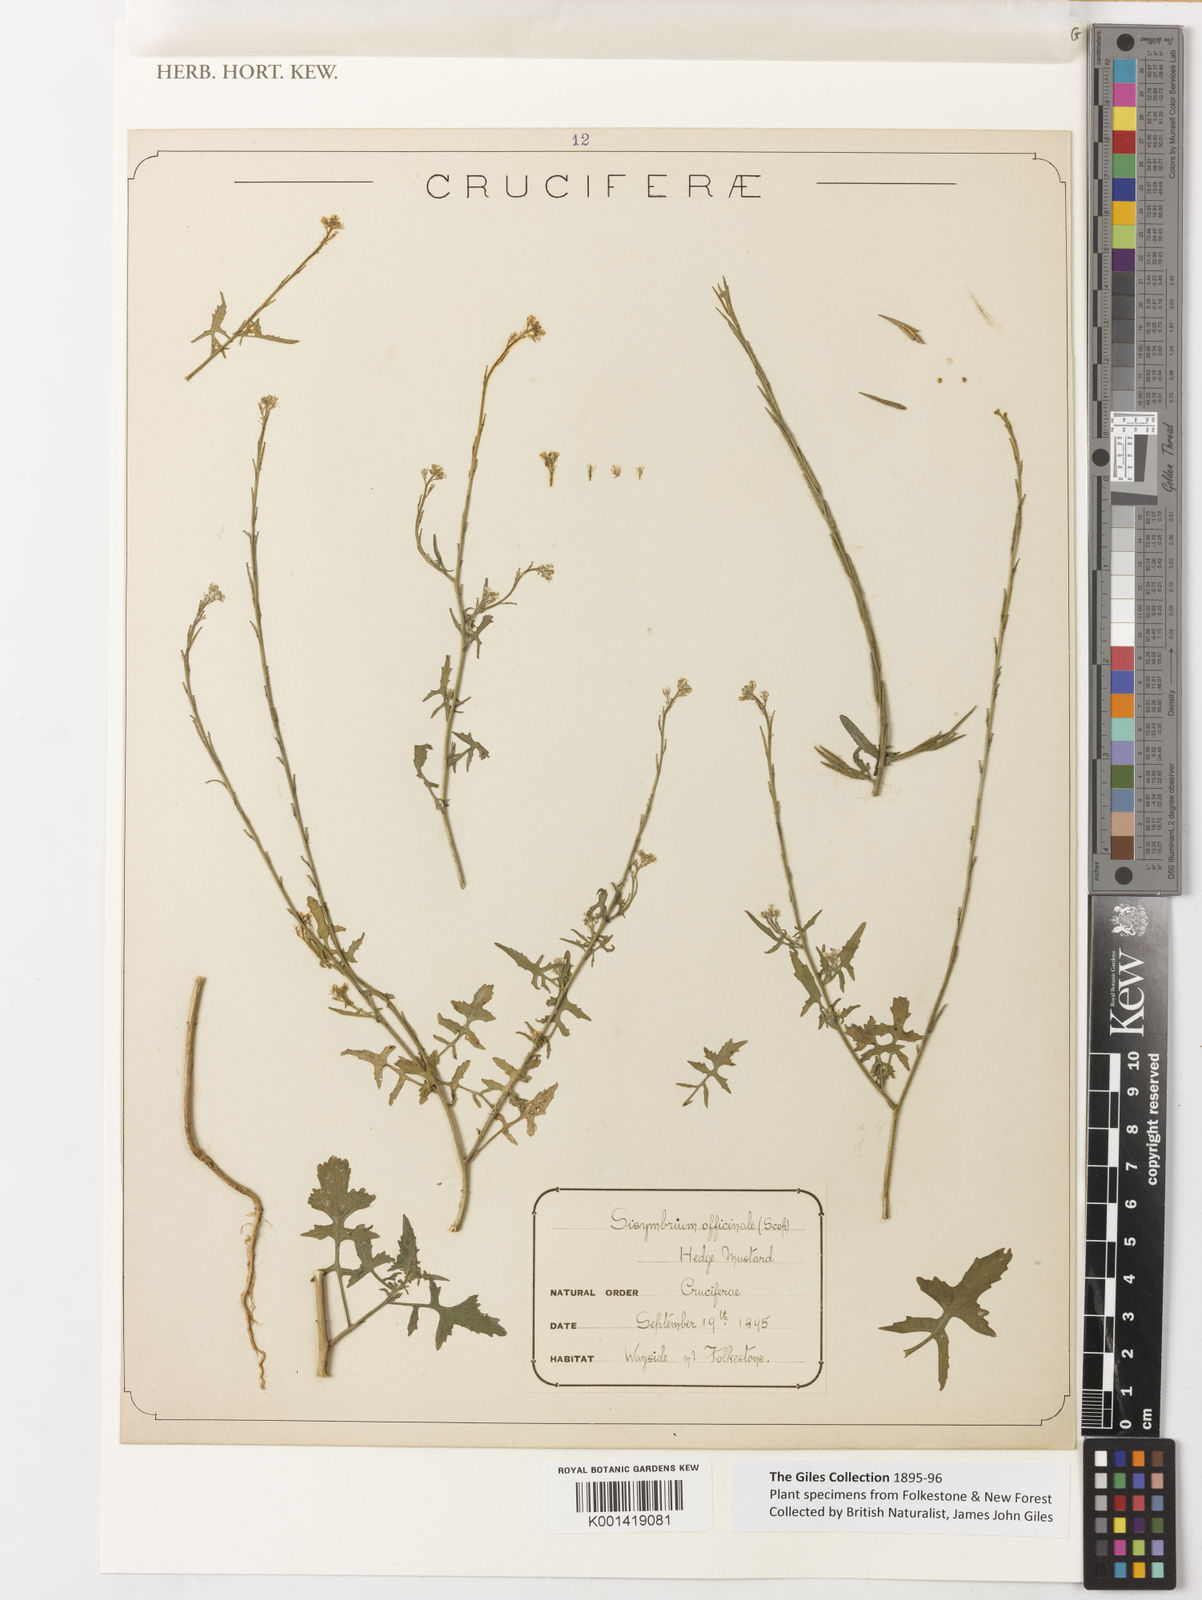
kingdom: Plantae
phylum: Tracheophyta
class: Magnoliopsida
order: Brassicales
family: Brassicaceae
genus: Sisymbrium
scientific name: Sisymbrium officinale
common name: Hedge mustard
